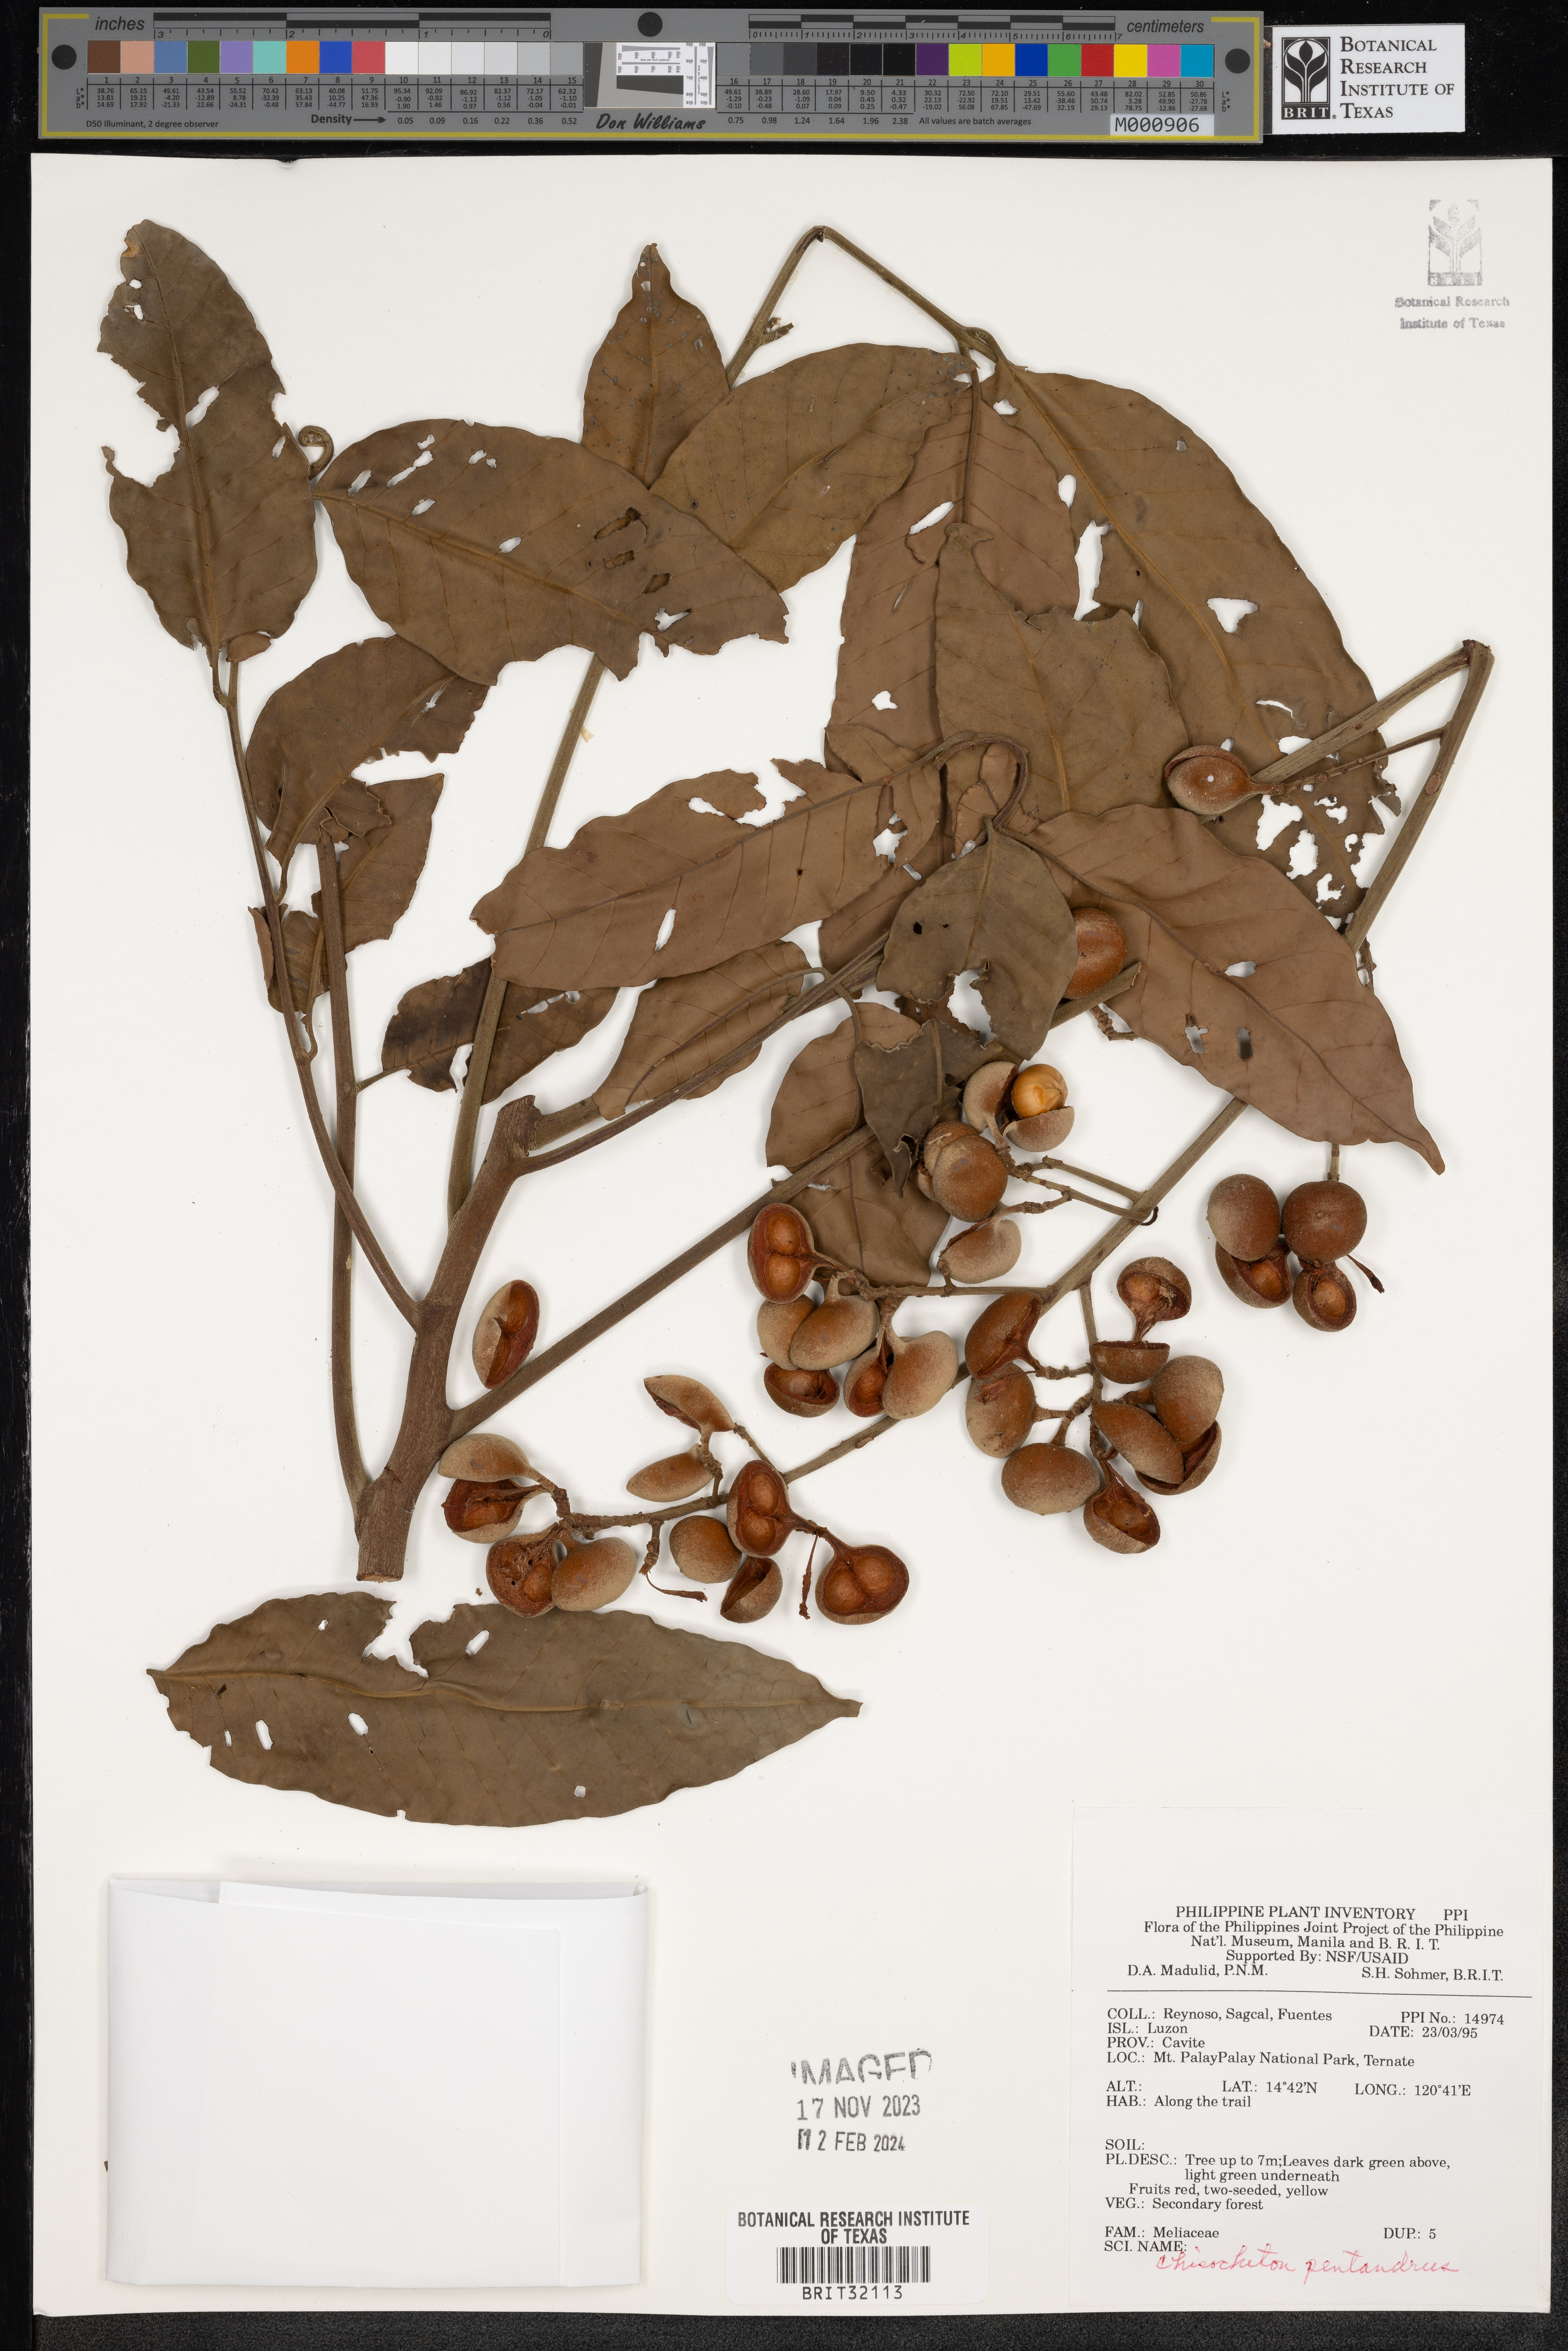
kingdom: Plantae
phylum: Tracheophyta
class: Magnoliopsida
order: Sapindales
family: Meliaceae
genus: Chisocheton
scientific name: Chisocheton pentandrus
